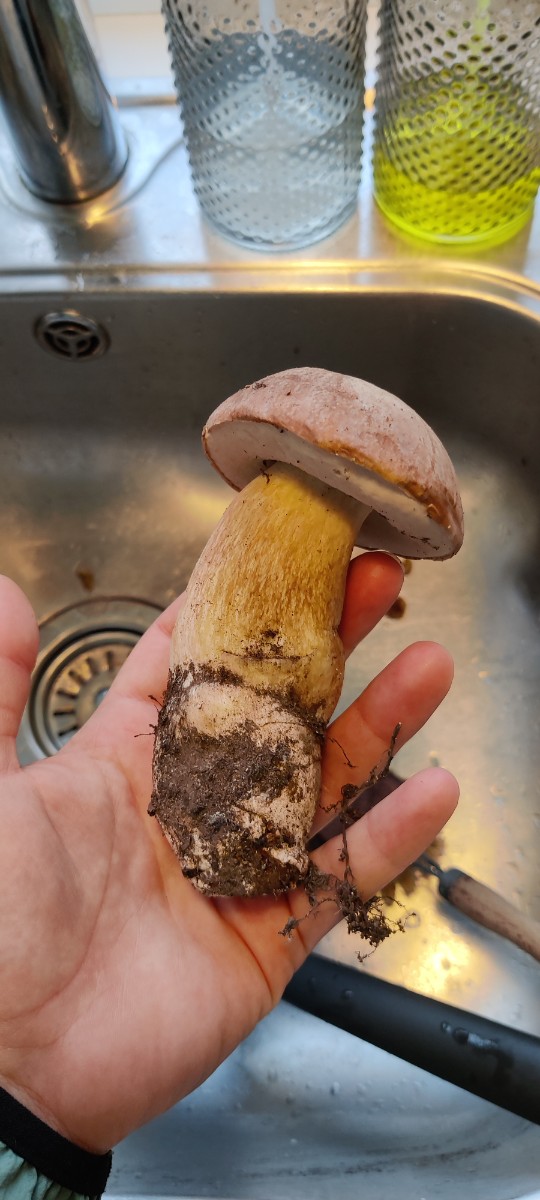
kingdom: Fungi
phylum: Basidiomycota
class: Agaricomycetes
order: Boletales
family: Boletaceae
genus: Boletus
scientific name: Boletus edulis
